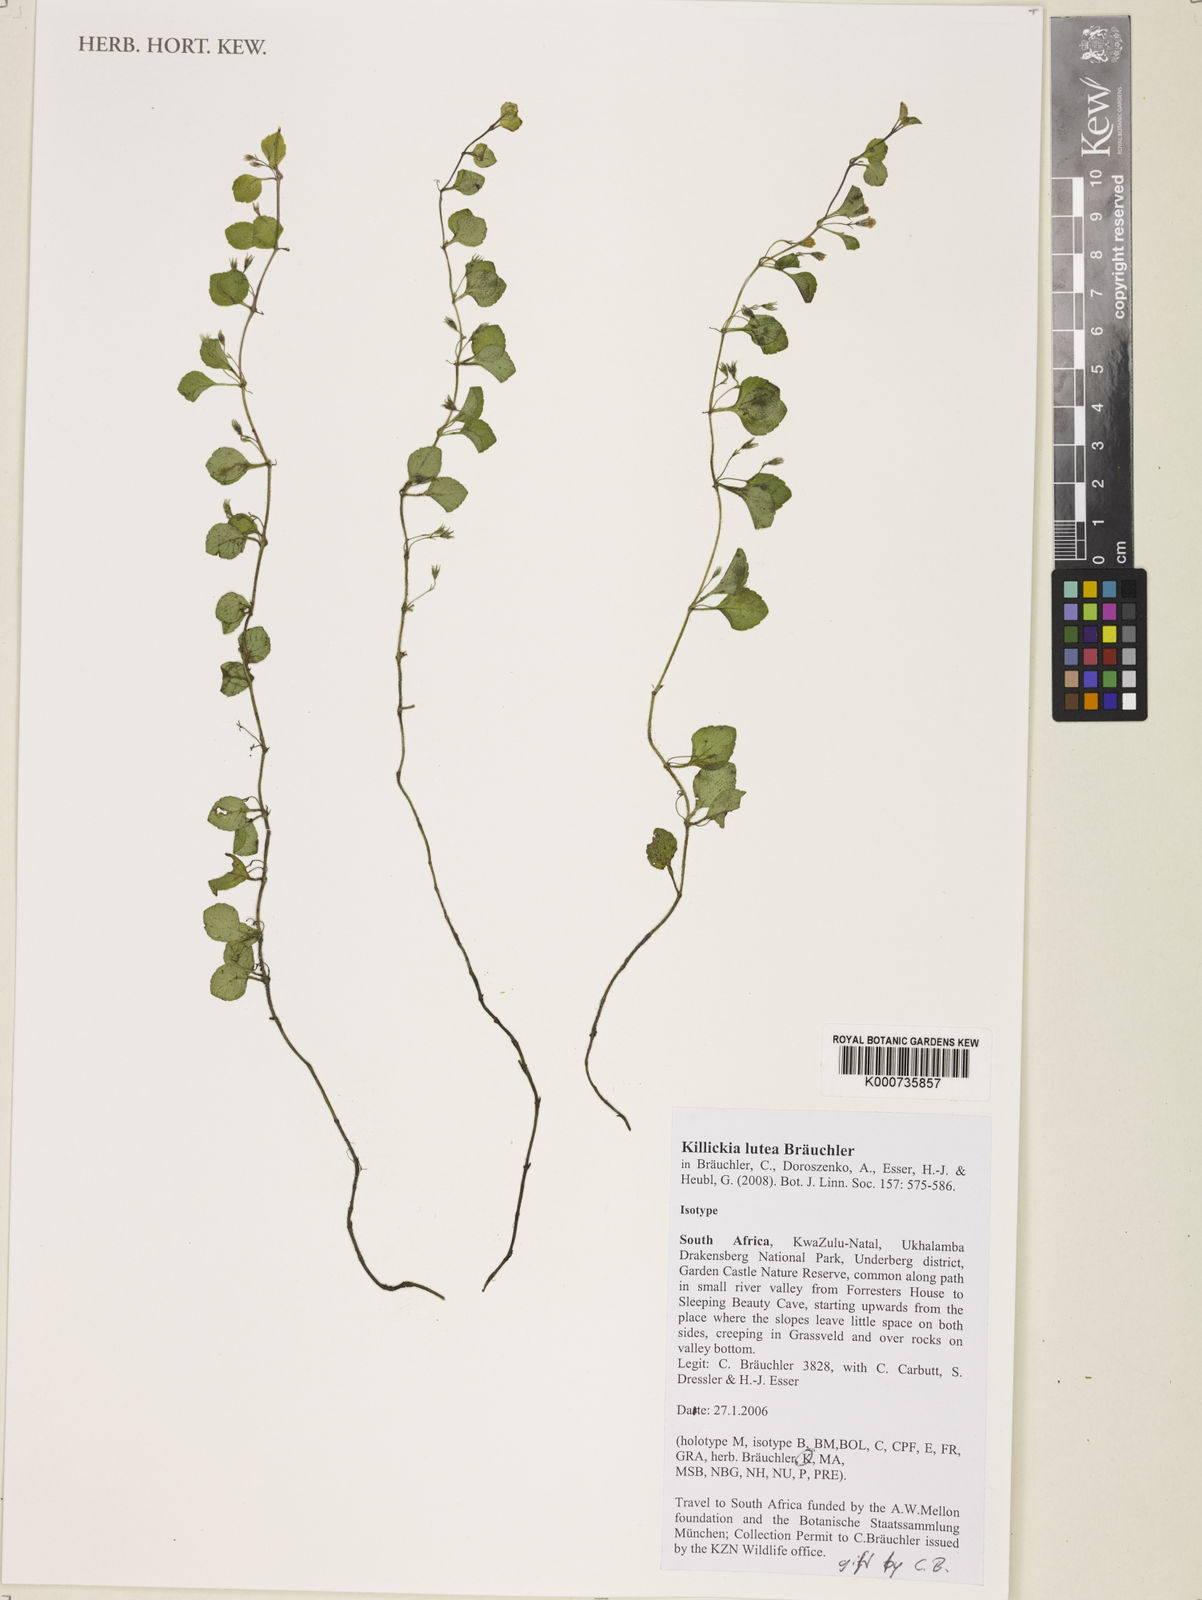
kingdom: Plantae
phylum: Tracheophyta
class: Magnoliopsida
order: Lamiales
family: Lamiaceae
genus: Killickia
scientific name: Killickia
